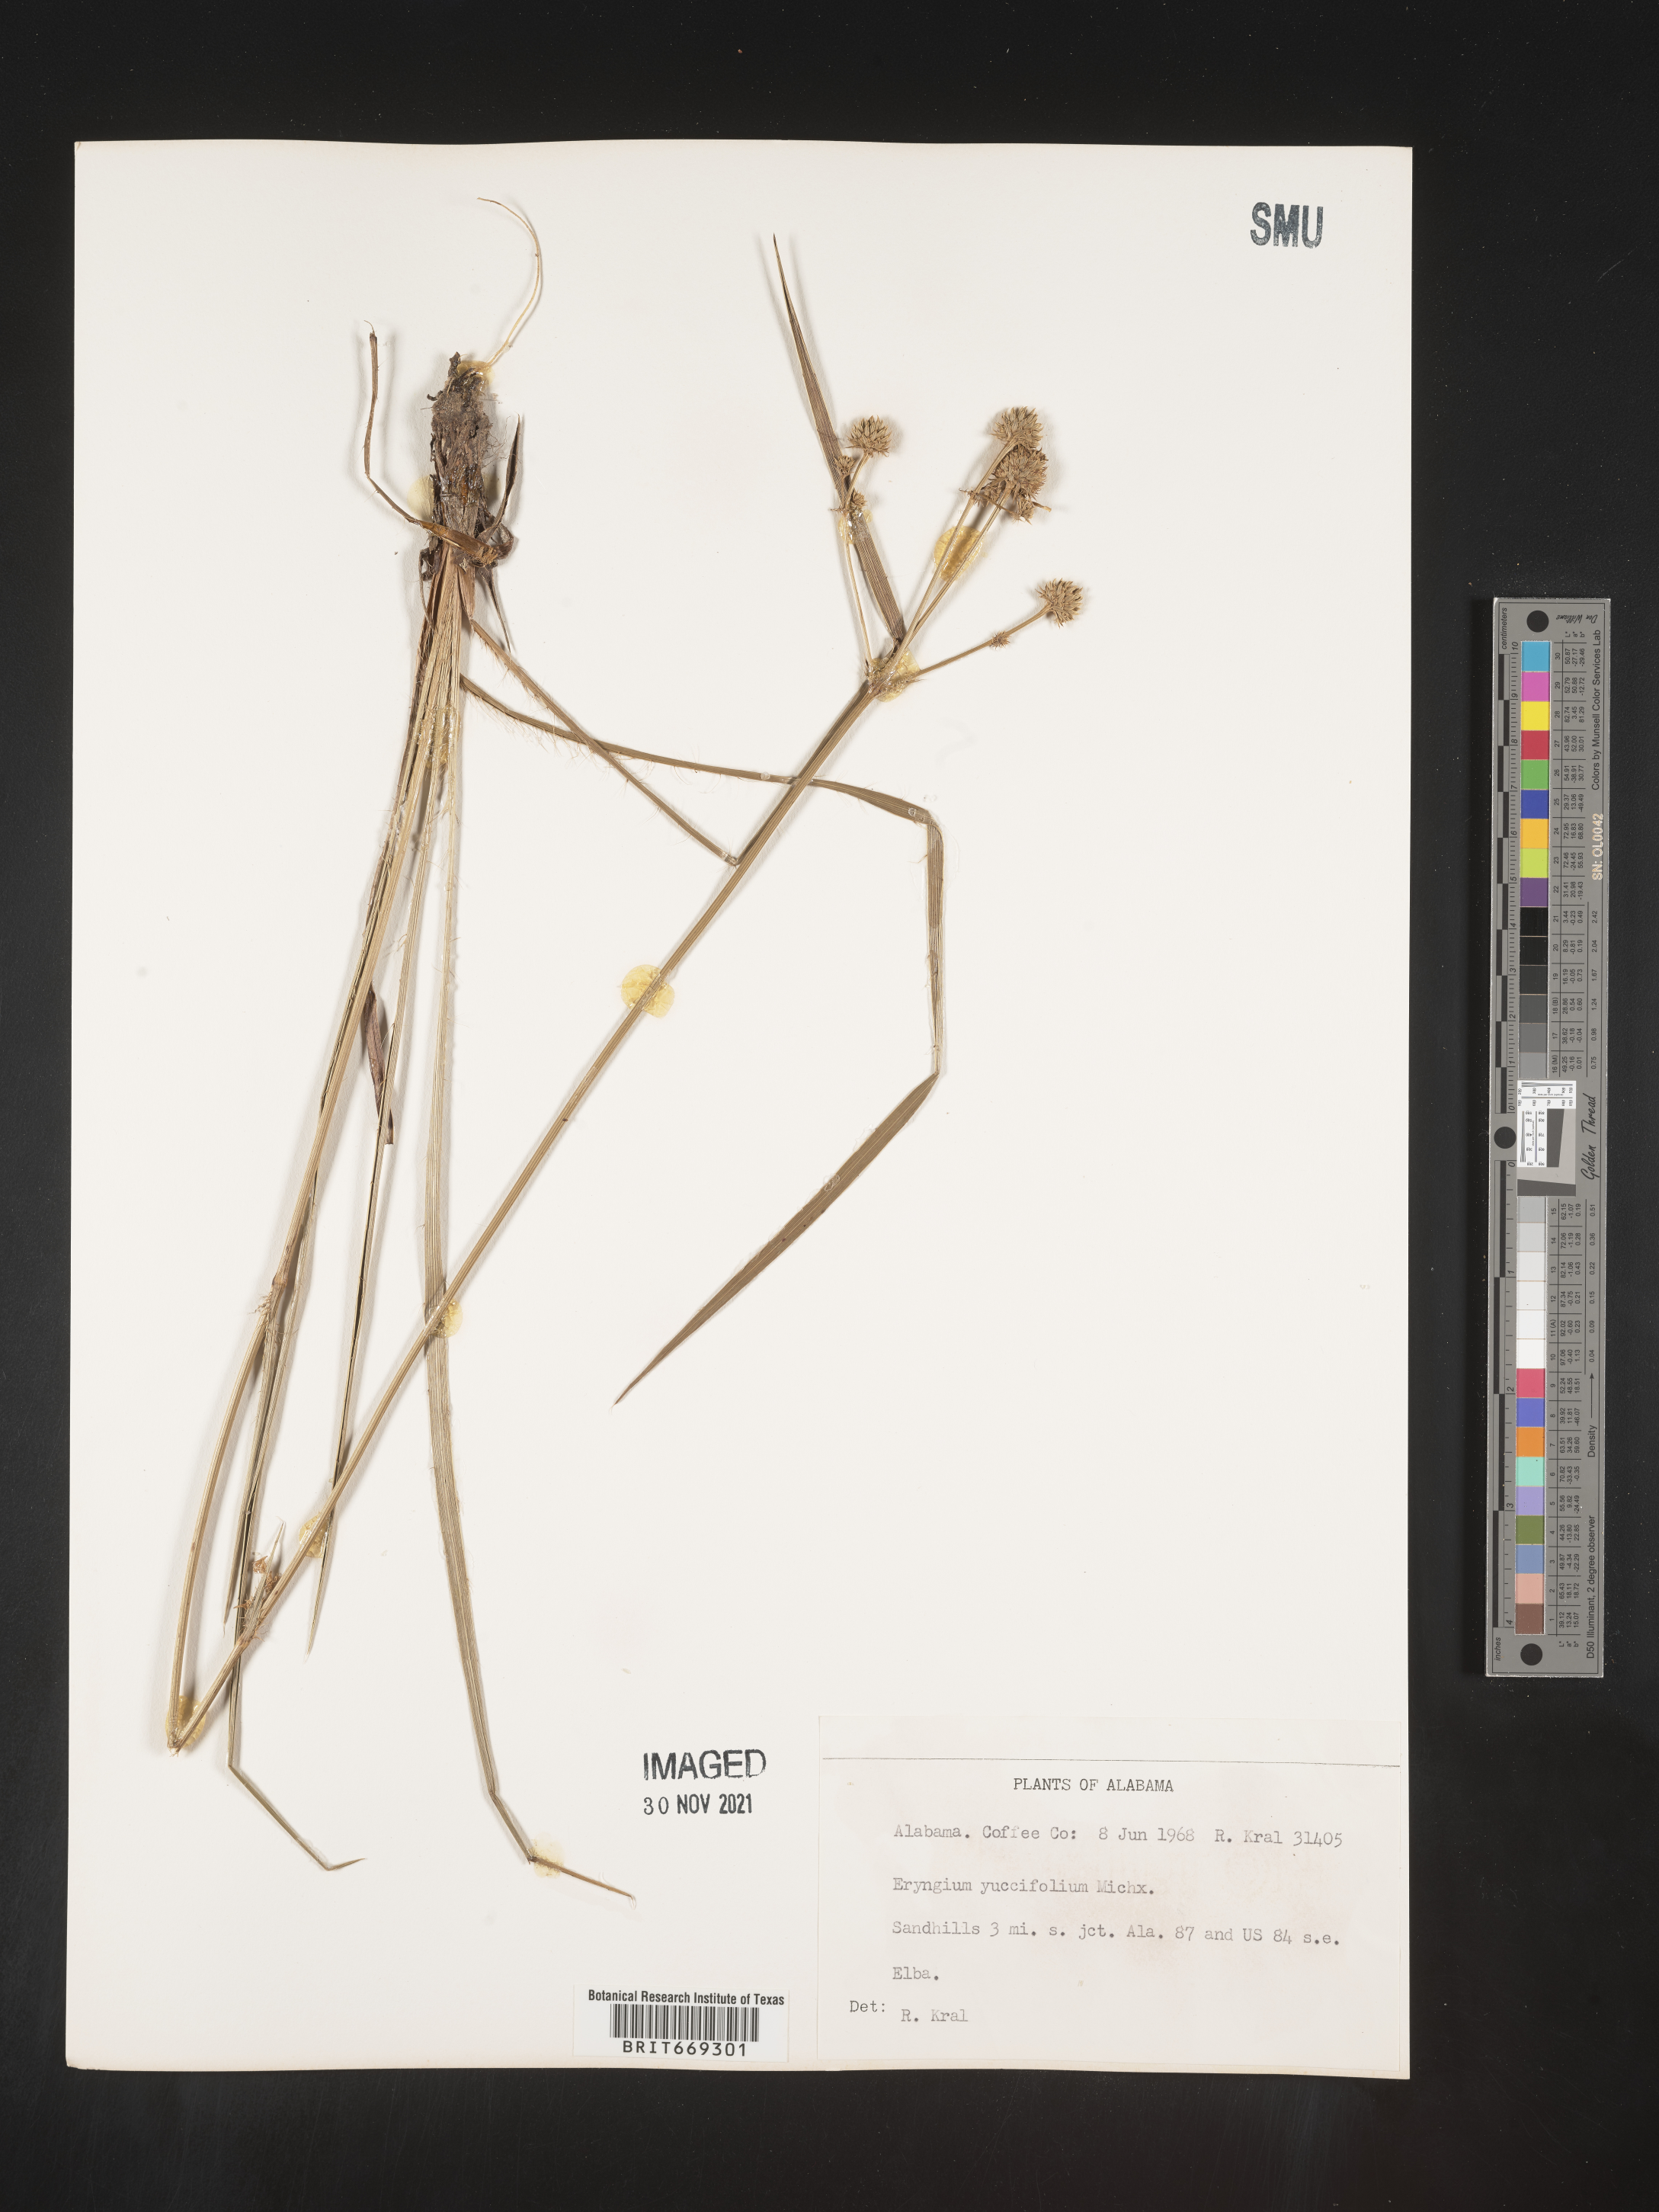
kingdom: Plantae
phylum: Tracheophyta
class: Magnoliopsida
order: Apiales
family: Apiaceae
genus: Eryngium
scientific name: Eryngium yuccifolium
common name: Button eryngo
